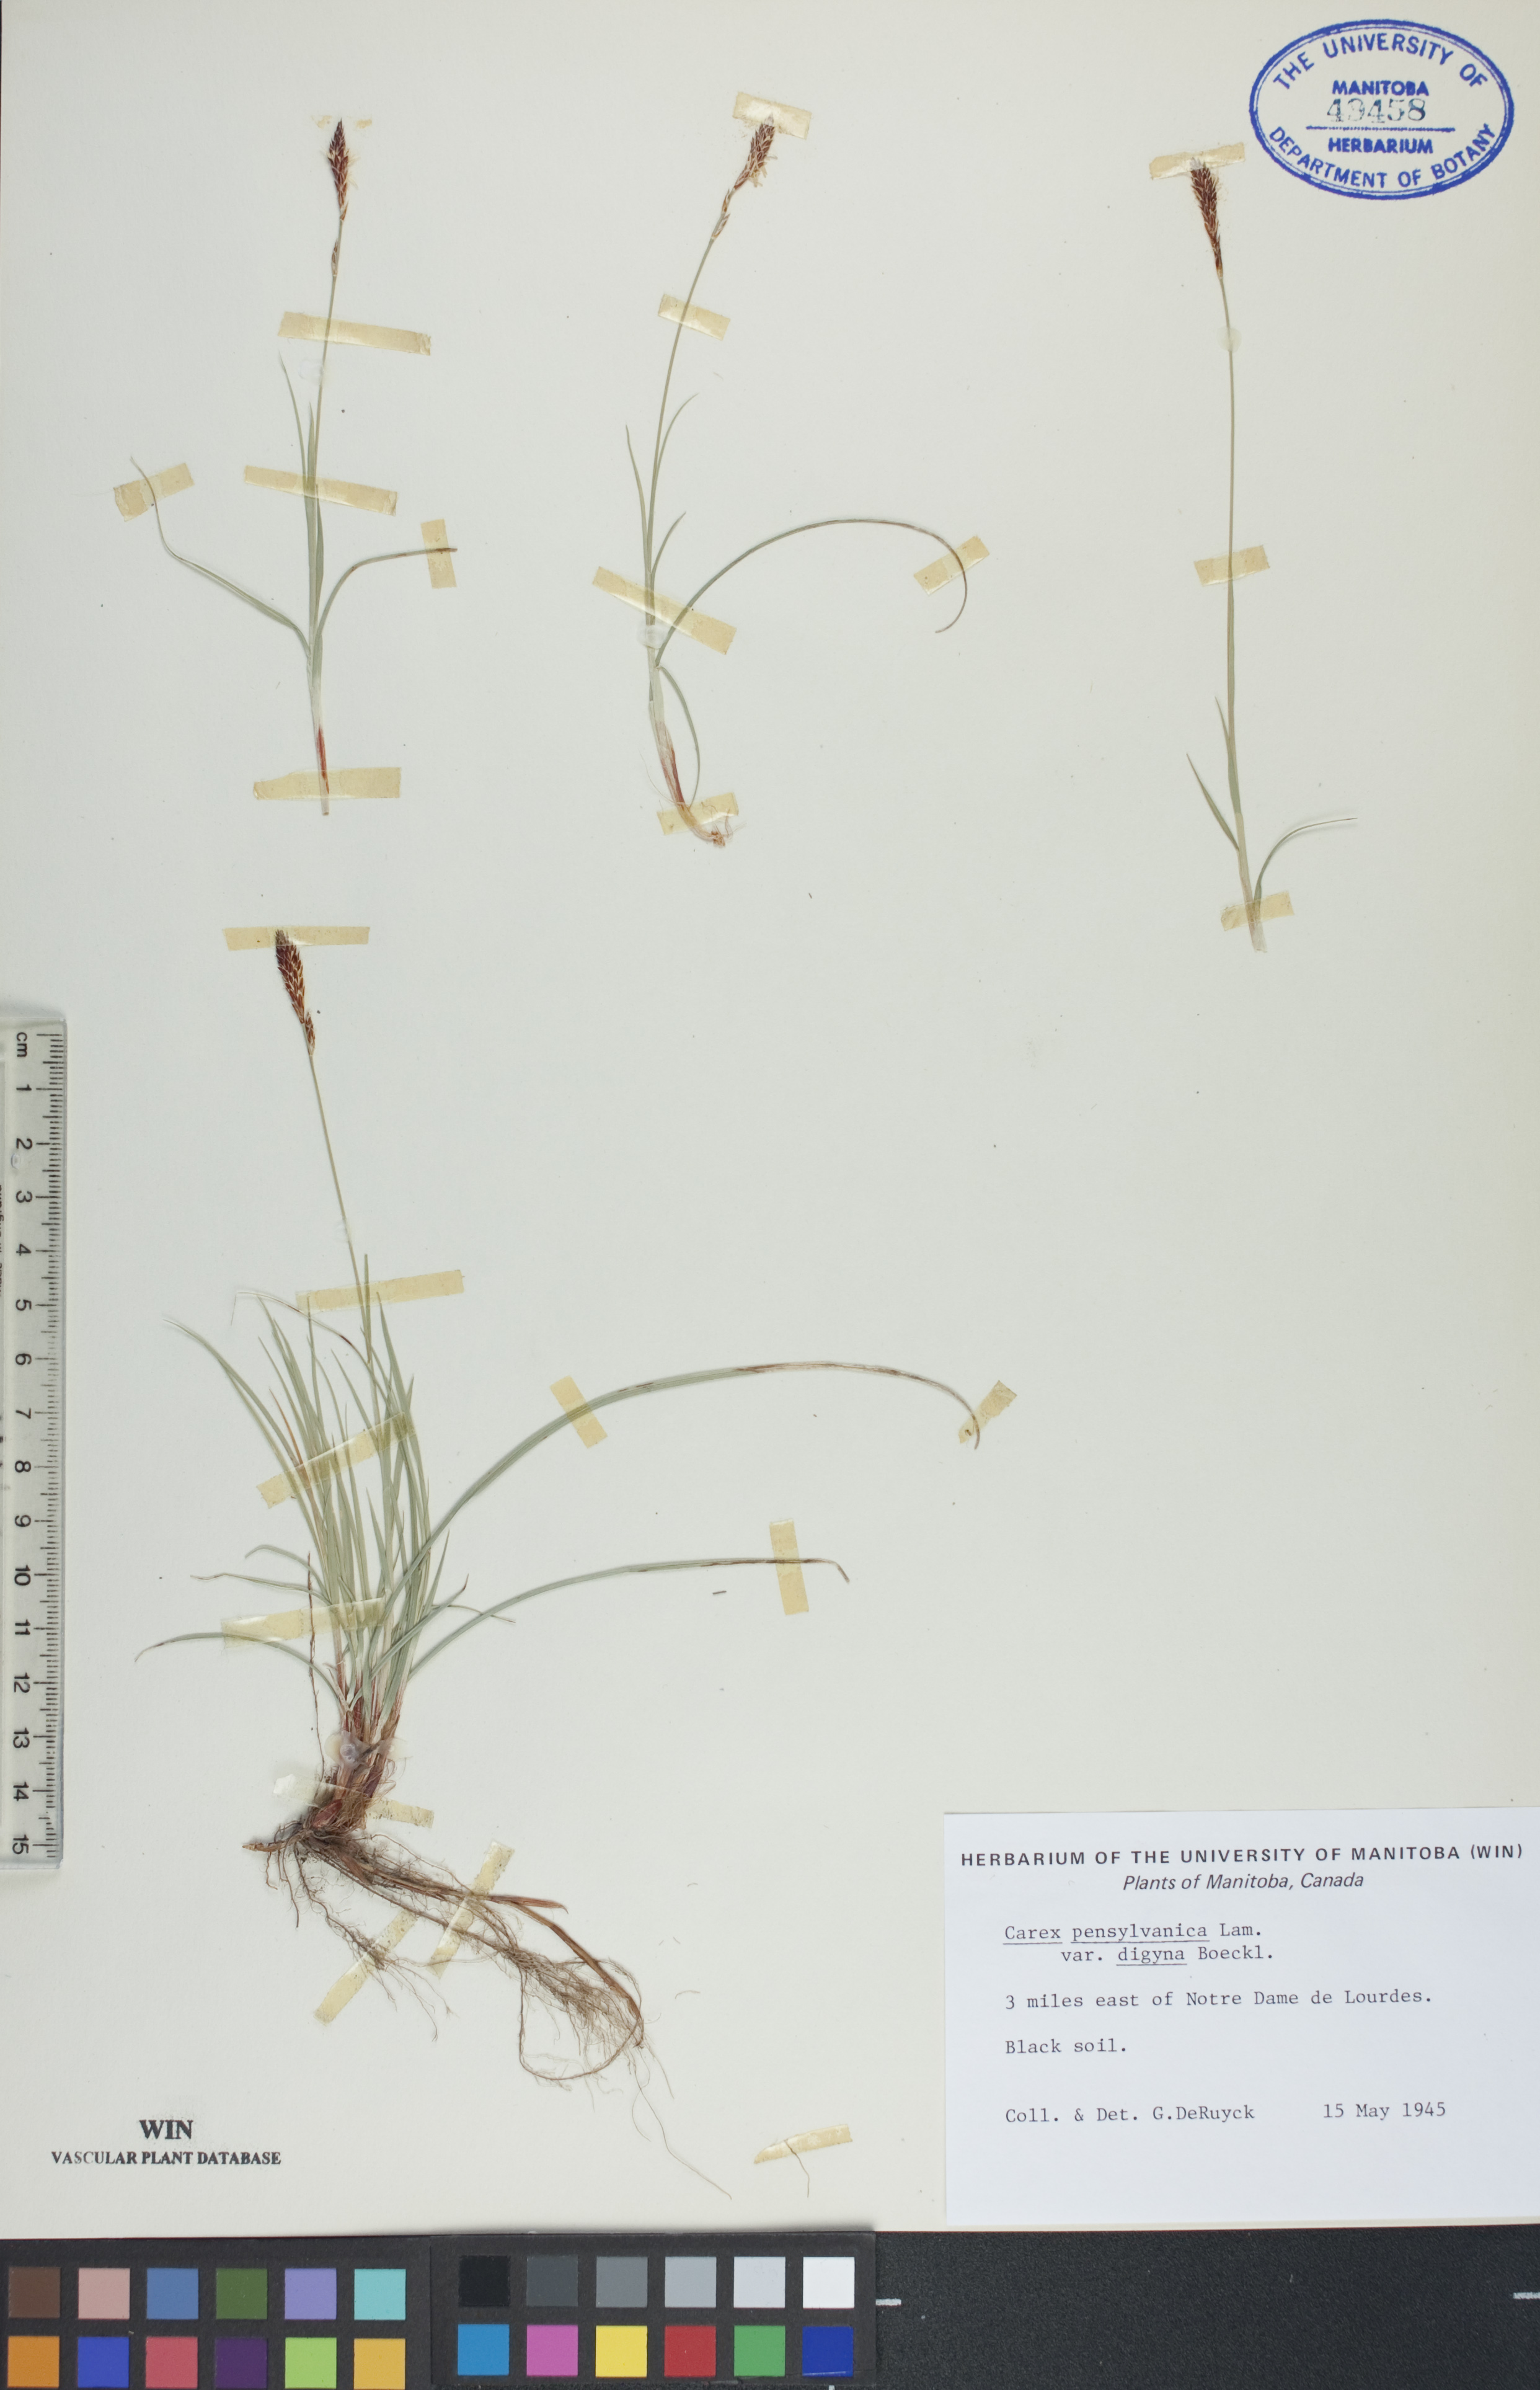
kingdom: Plantae
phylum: Tracheophyta
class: Liliopsida
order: Poales
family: Cyperaceae
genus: Carex
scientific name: Carex pensylvanica
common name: Common oak sedge
